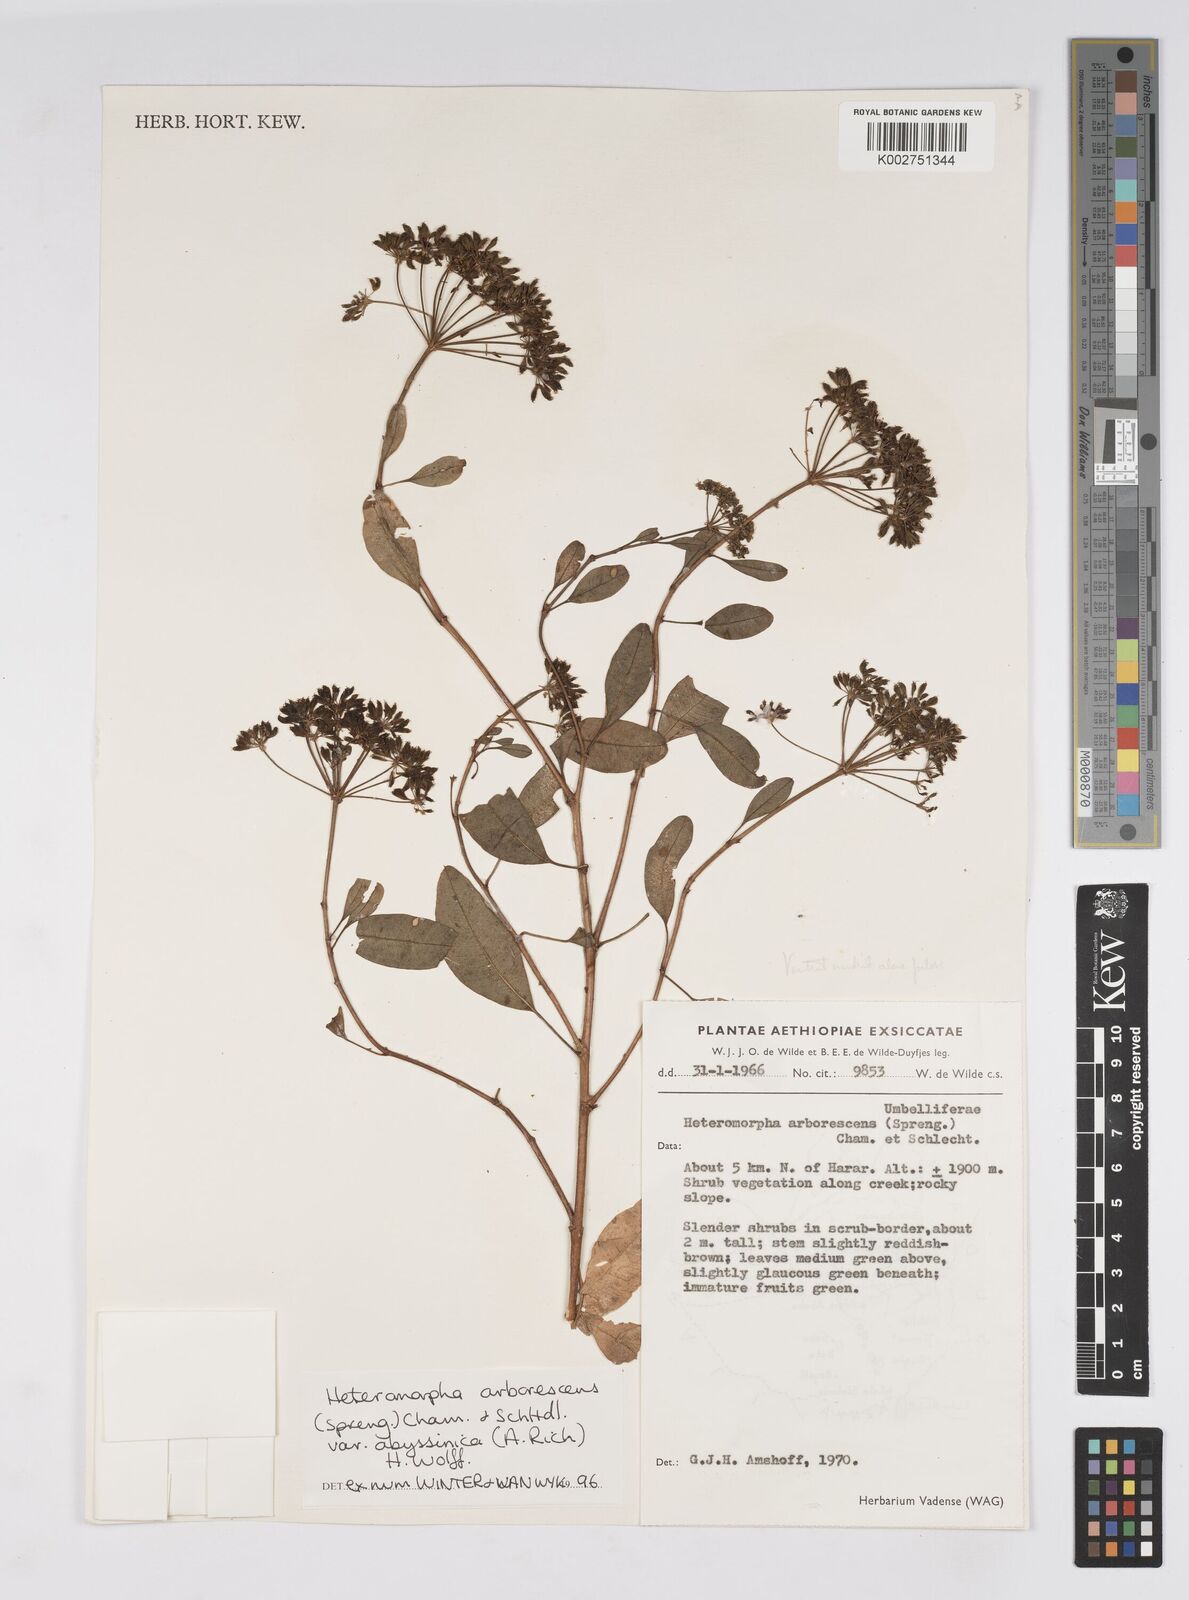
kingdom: Plantae
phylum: Tracheophyta
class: Magnoliopsida
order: Apiales
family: Apiaceae
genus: Heteromorpha
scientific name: Heteromorpha
